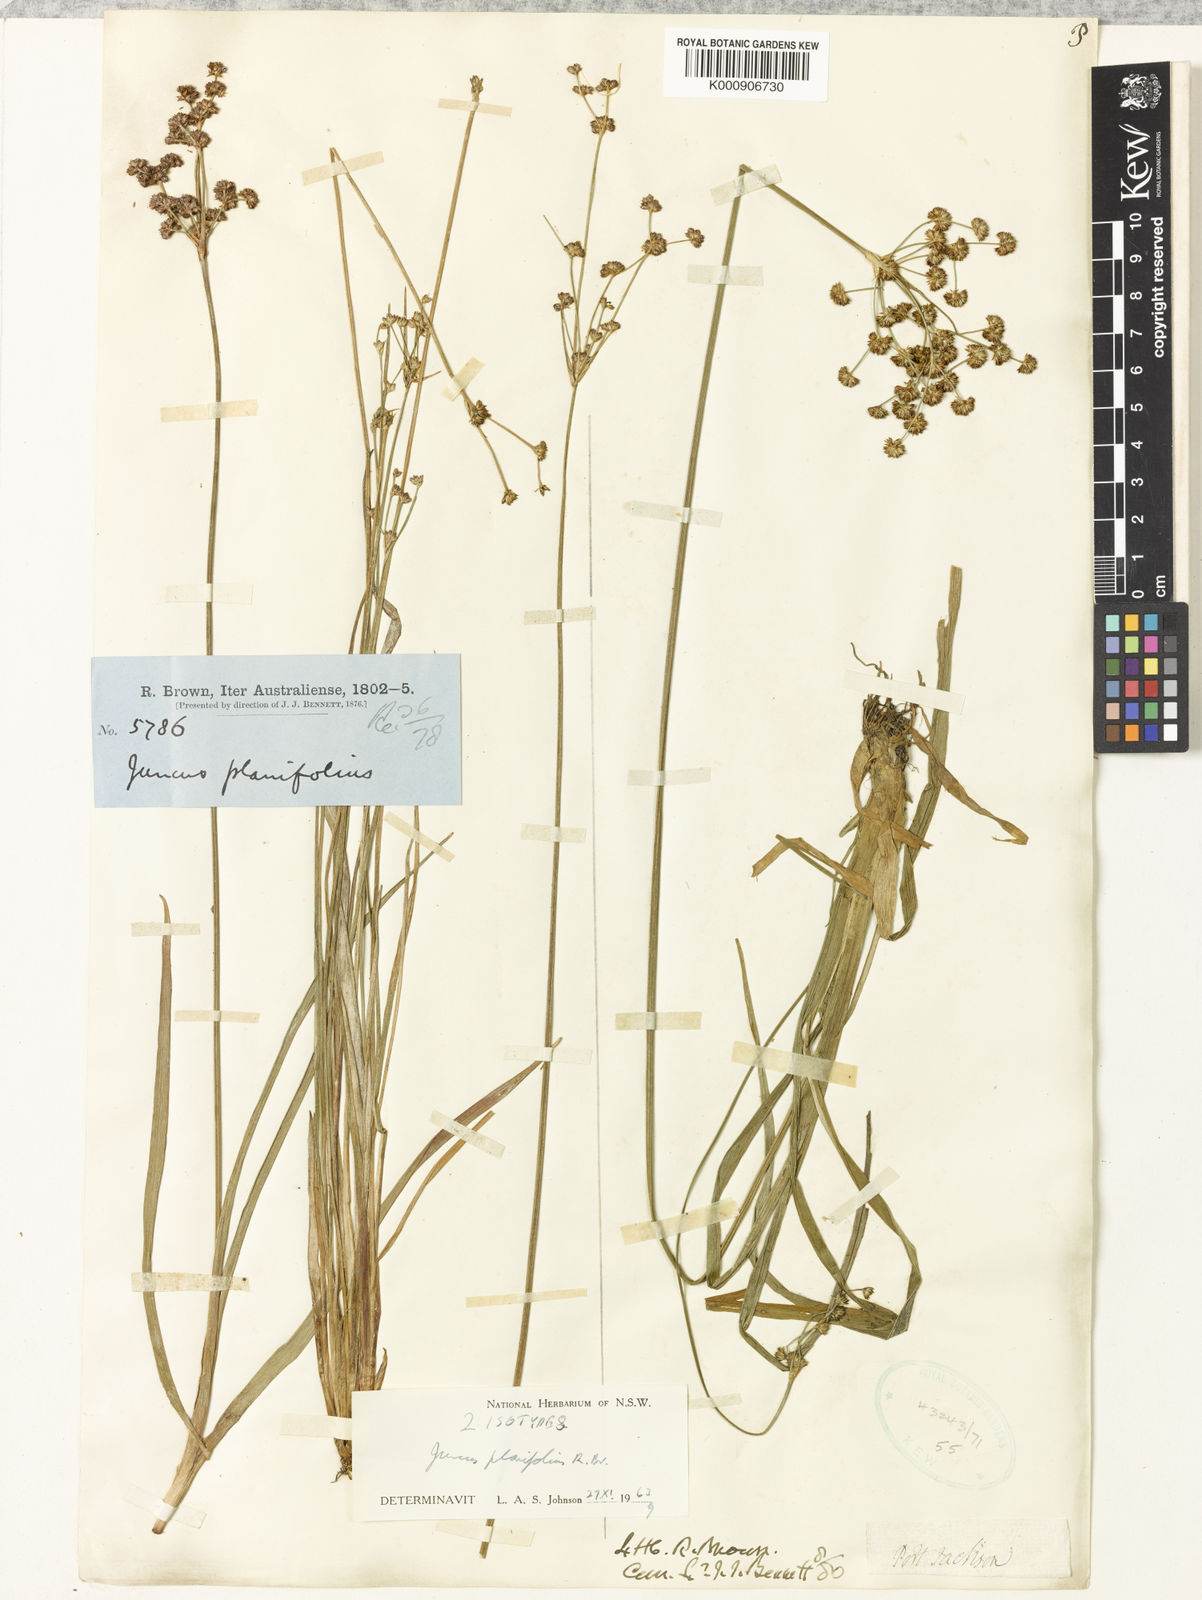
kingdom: Plantae
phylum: Tracheophyta
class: Liliopsida
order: Poales
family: Juncaceae
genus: Juncus
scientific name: Juncus planifolius
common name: Broadleaf rush
